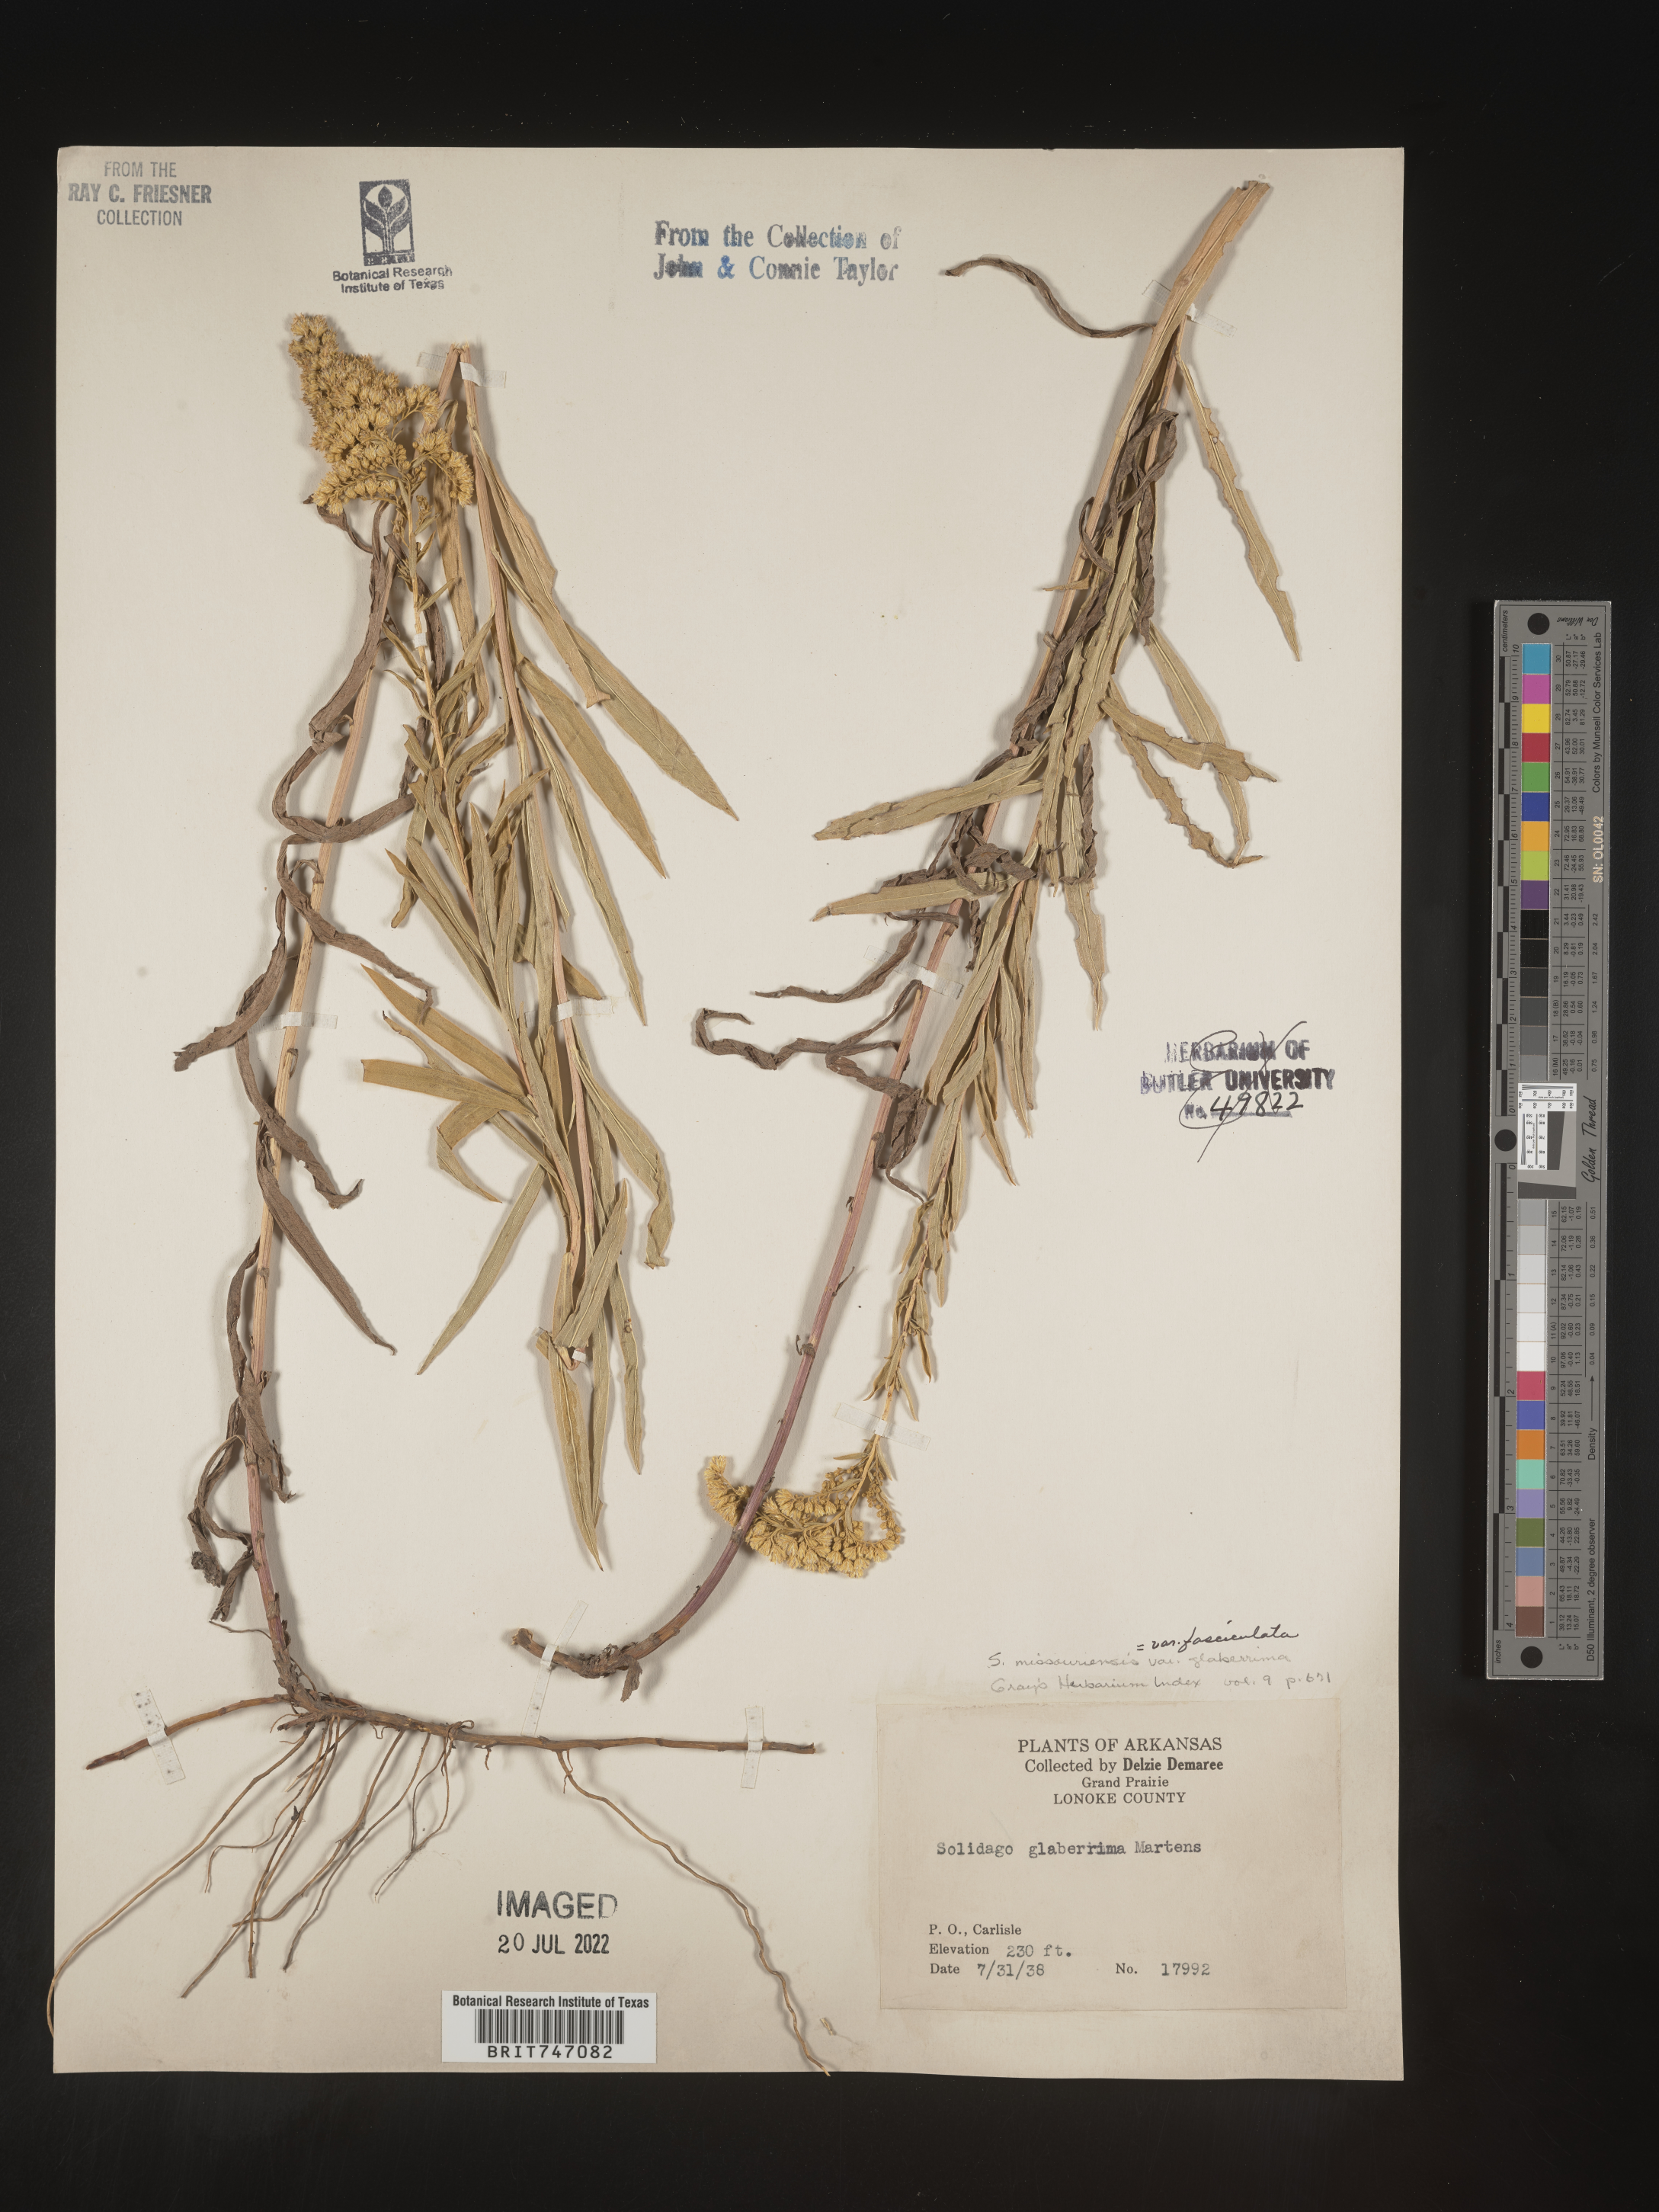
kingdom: Plantae
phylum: Tracheophyta
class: Magnoliopsida
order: Asterales
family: Asteraceae
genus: Solidago
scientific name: Solidago missouriensis
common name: Prairie goldenrod
